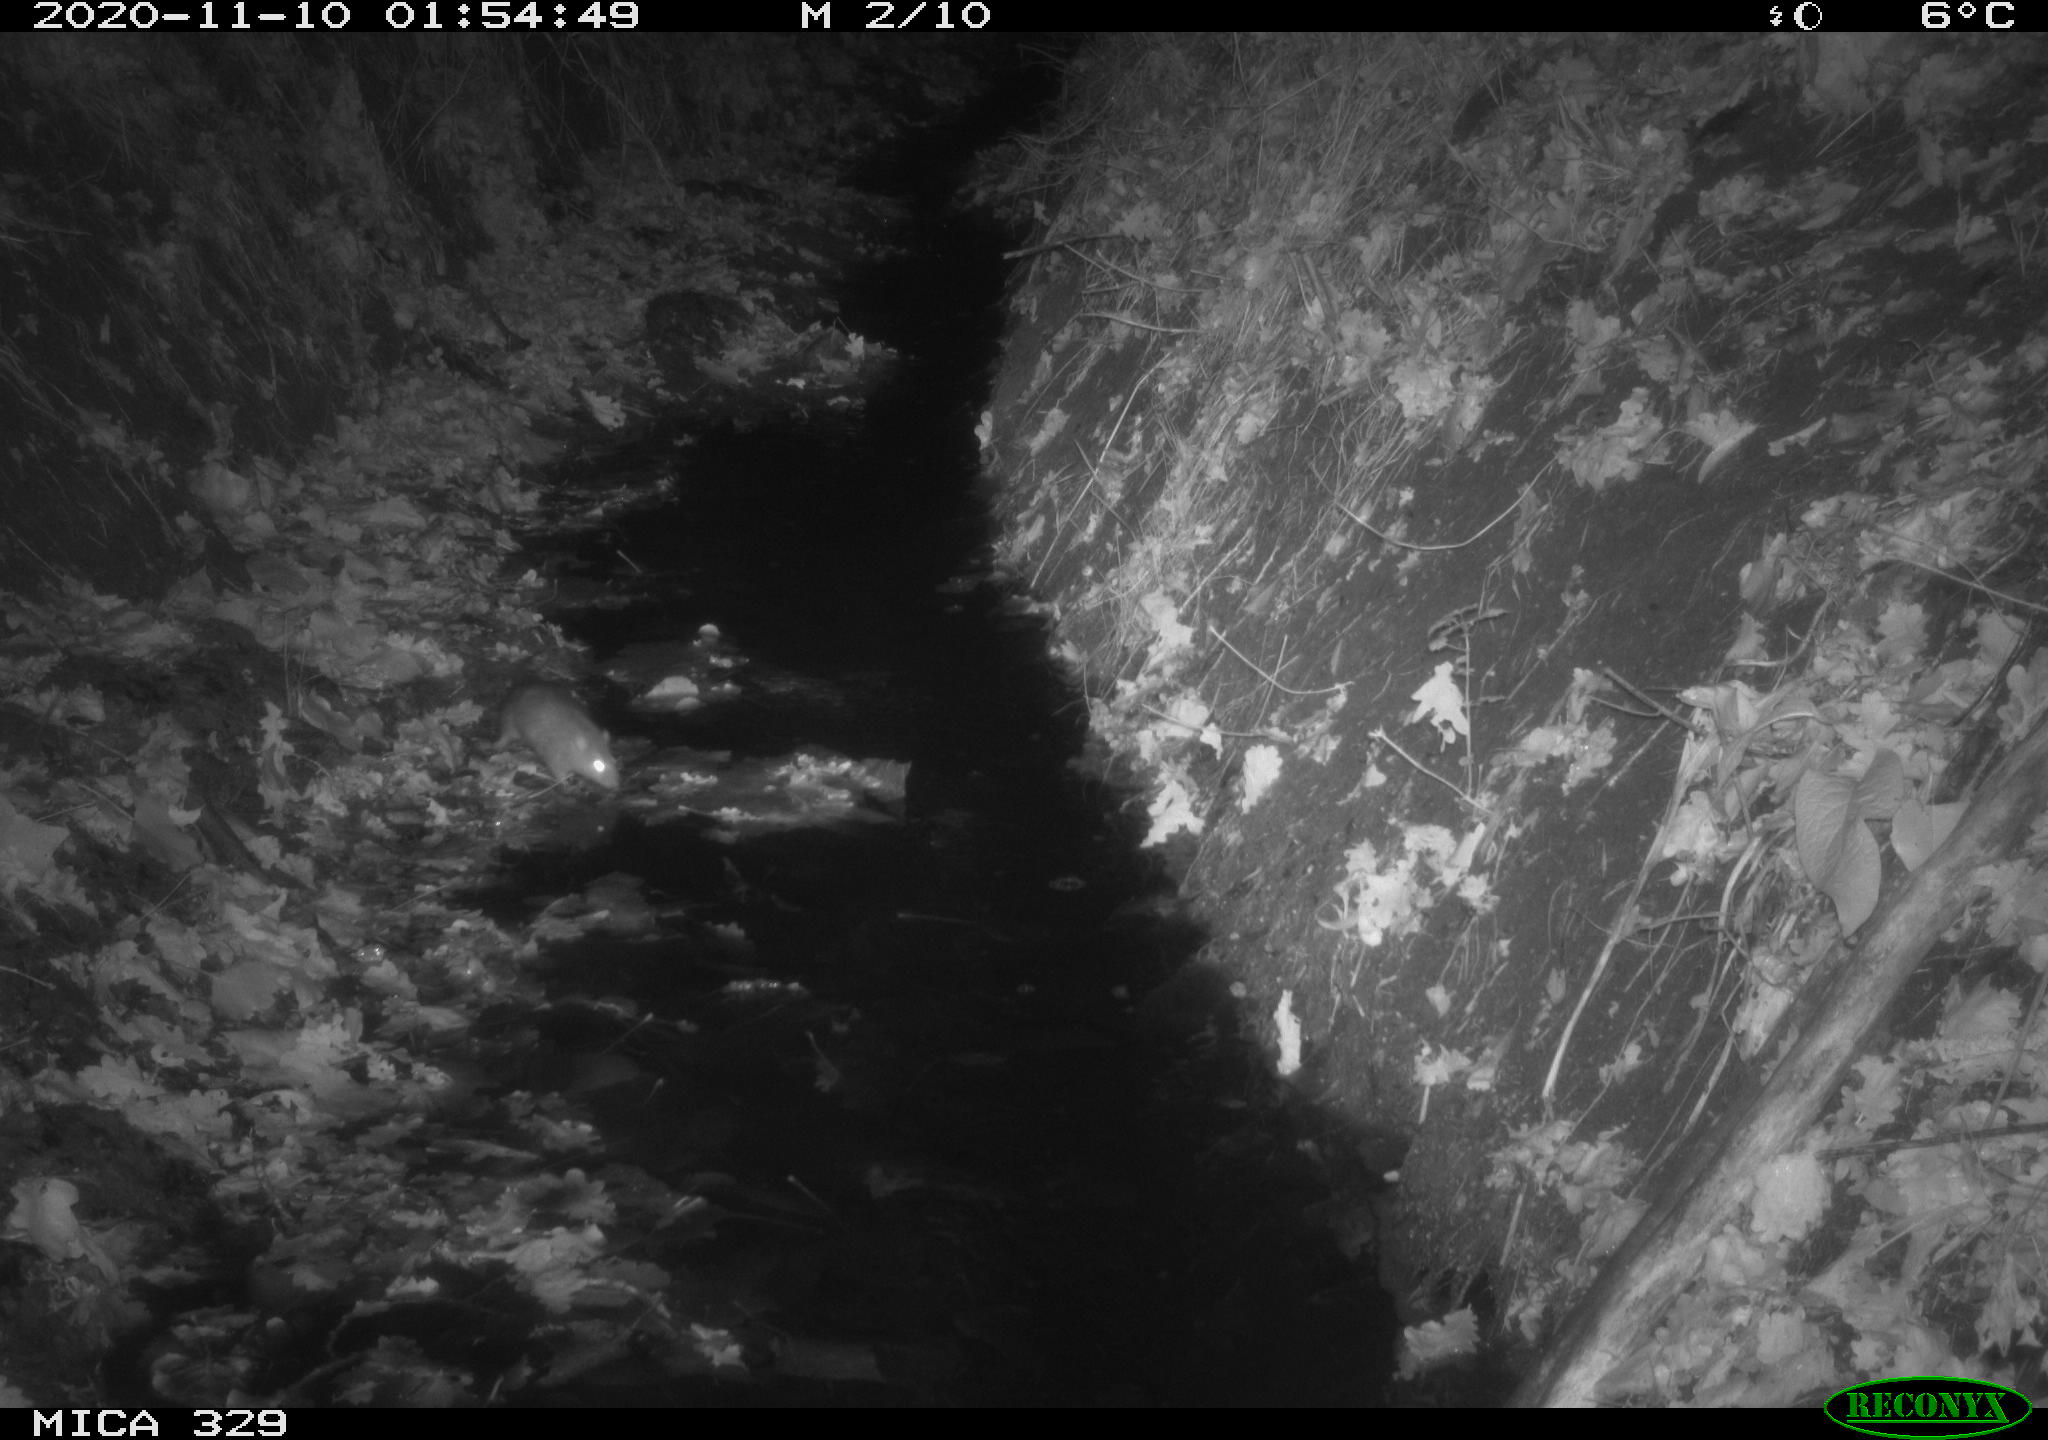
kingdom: Animalia
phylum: Chordata
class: Mammalia
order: Rodentia
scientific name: Rodentia
